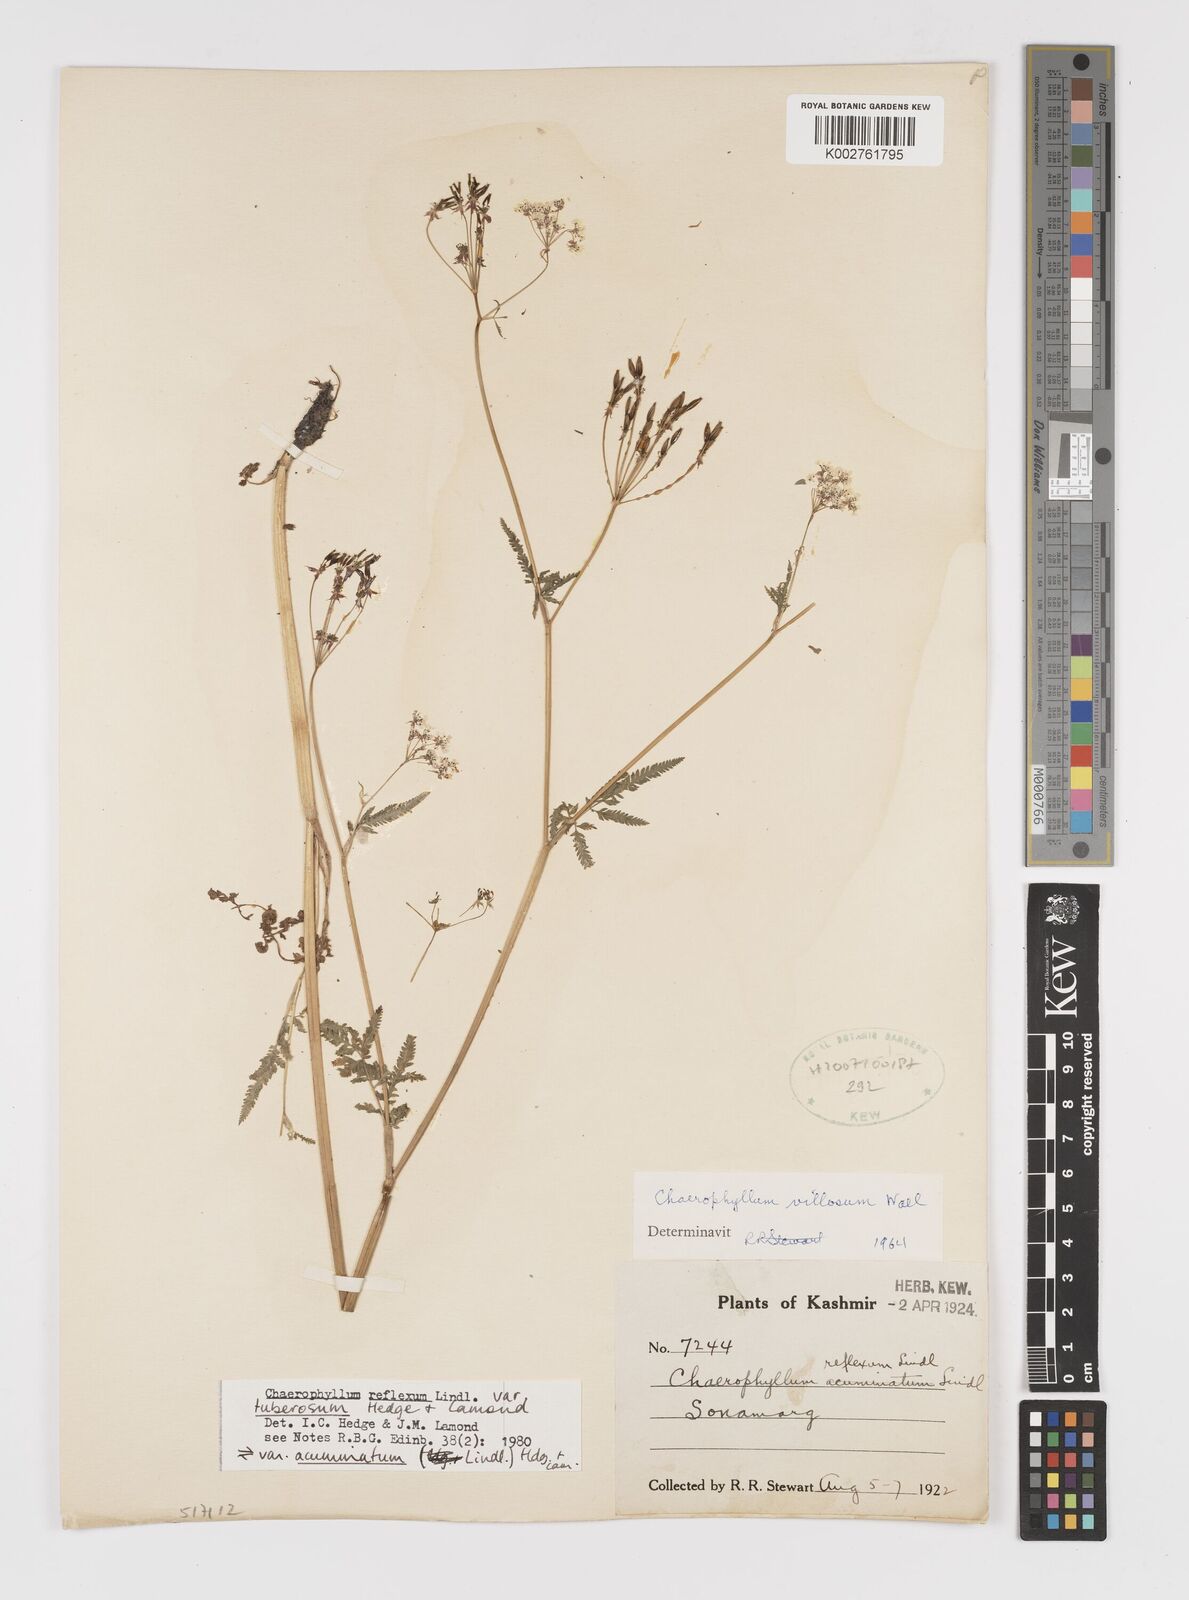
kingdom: Plantae
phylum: Tracheophyta
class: Magnoliopsida
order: Apiales
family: Apiaceae
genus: Chaerophyllum
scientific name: Chaerophyllum reflexum
